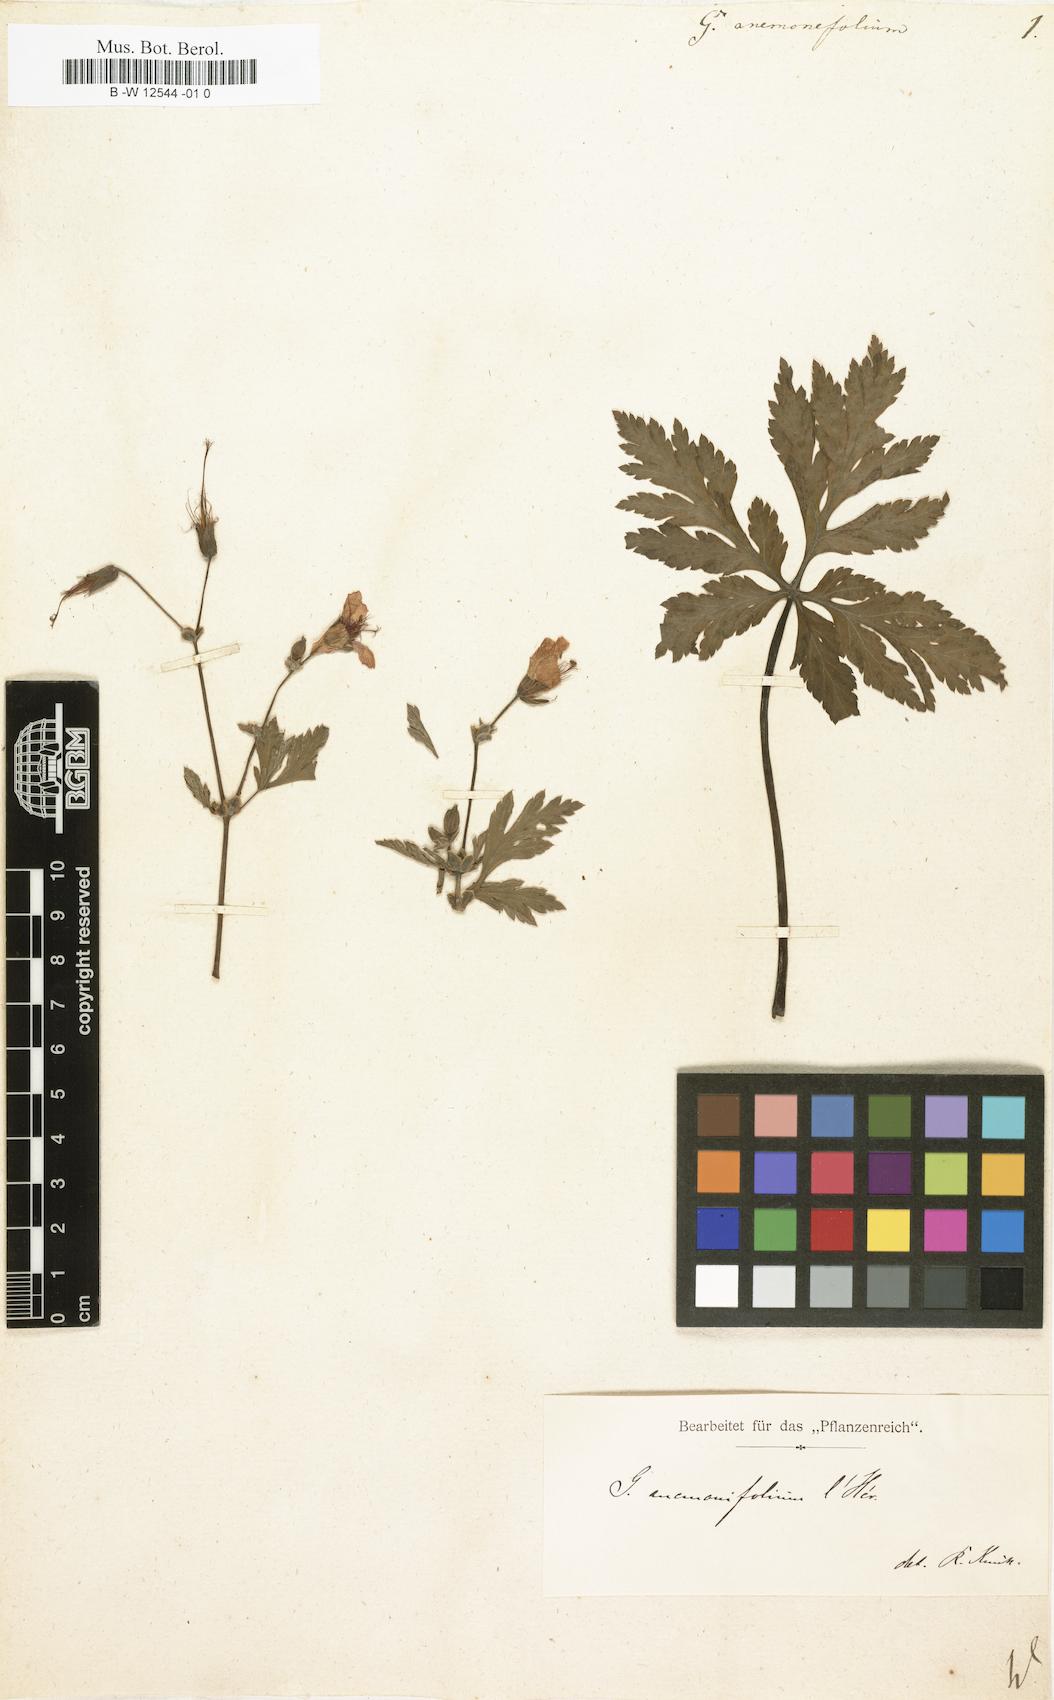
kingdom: Plantae
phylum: Tracheophyta
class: Magnoliopsida
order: Geraniales
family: Geraniaceae
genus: Geranium
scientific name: Geranium palmatum
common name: Canary island geranium
